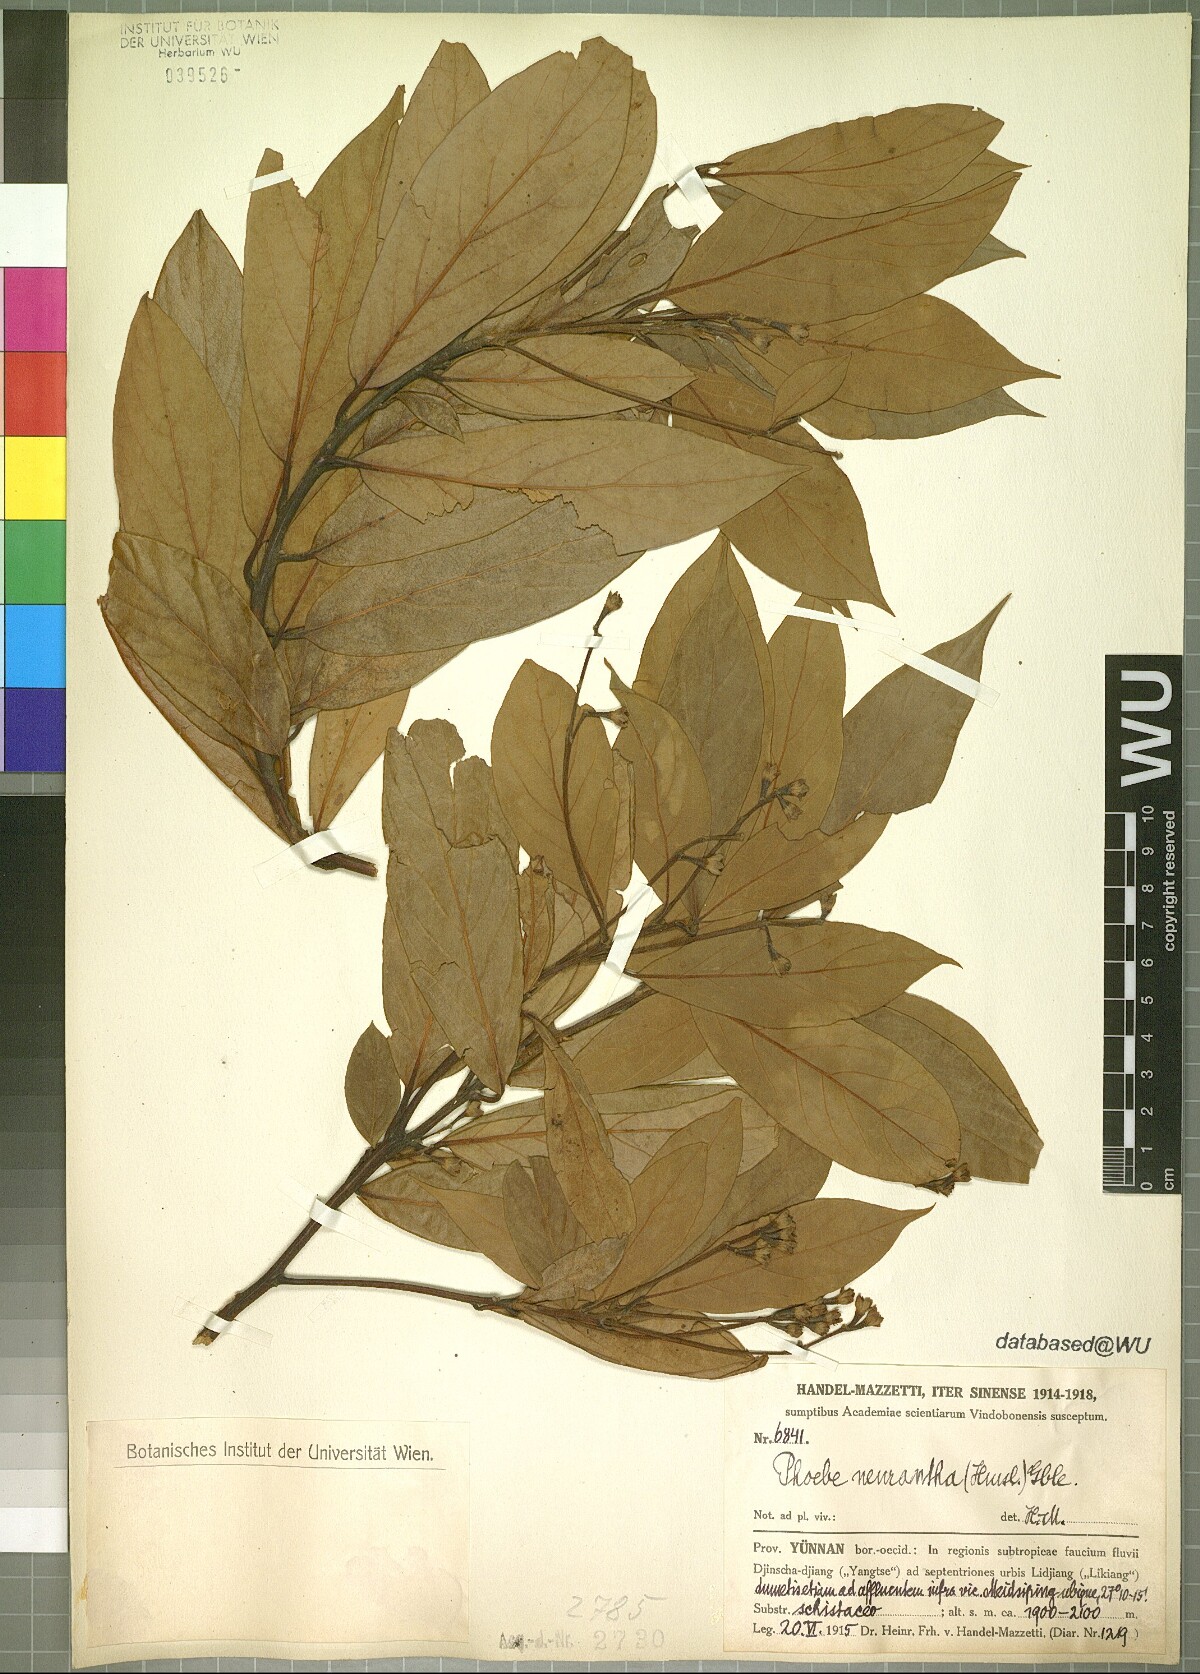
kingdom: Plantae
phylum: Tracheophyta
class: Magnoliopsida
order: Laurales
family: Lauraceae
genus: Phoebe
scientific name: Phoebe neurantha
